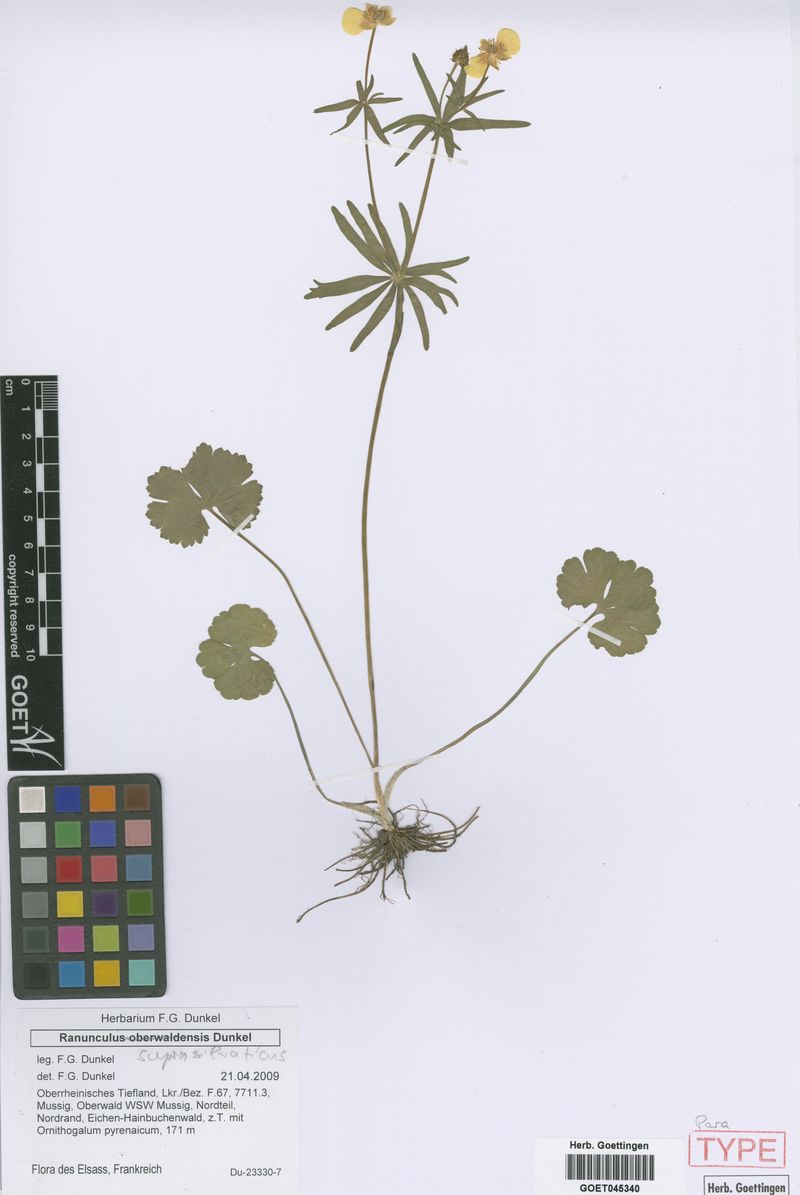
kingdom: Plantae
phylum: Tracheophyta
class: Magnoliopsida
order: Ranunculales
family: Ranunculaceae
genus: Ranunculus
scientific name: Ranunculus suprasilvaticus
